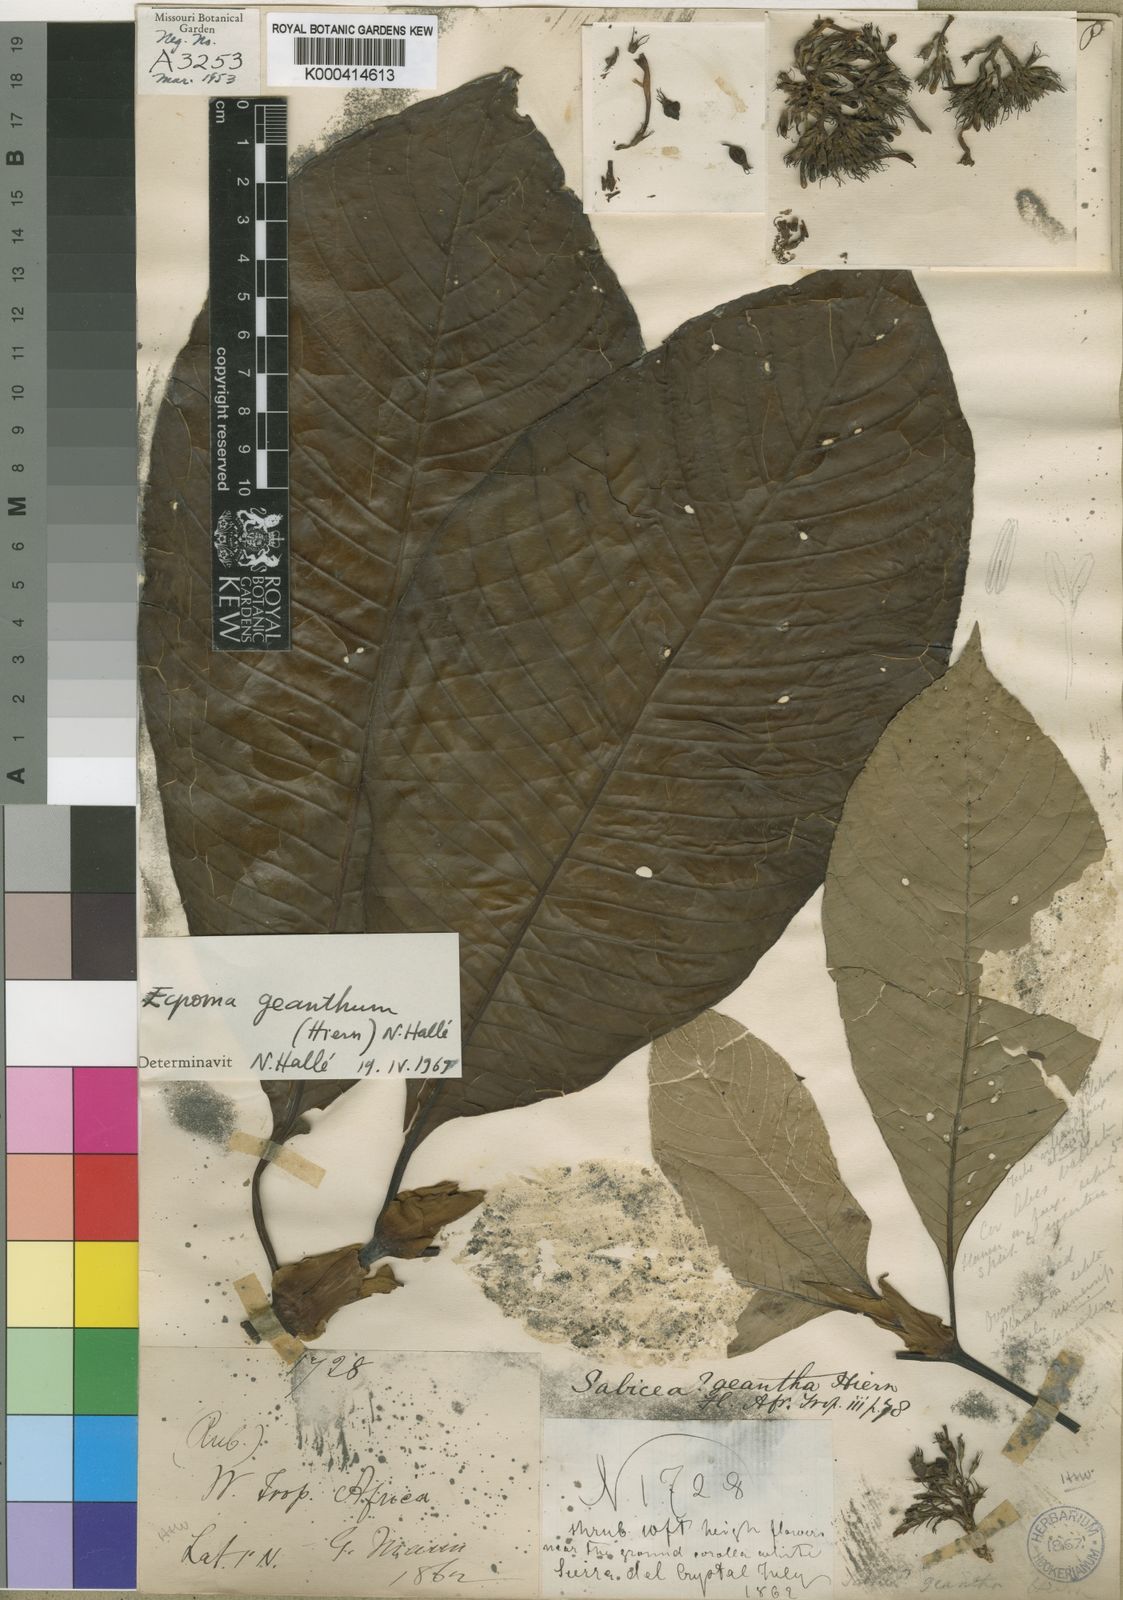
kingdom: Plantae
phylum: Tracheophyta
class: Magnoliopsida
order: Gentianales
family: Rubiaceae
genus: Sabicea
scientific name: Sabicea geantha
